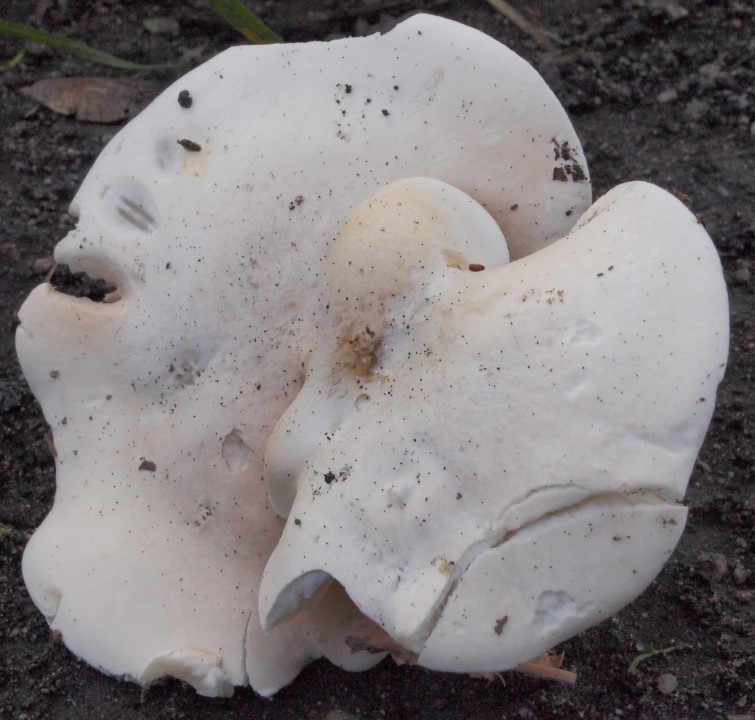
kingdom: Fungi
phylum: Basidiomycota
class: Agaricomycetes
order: Agaricales
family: Entolomataceae
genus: Clitopilus
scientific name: Clitopilus prunulus
